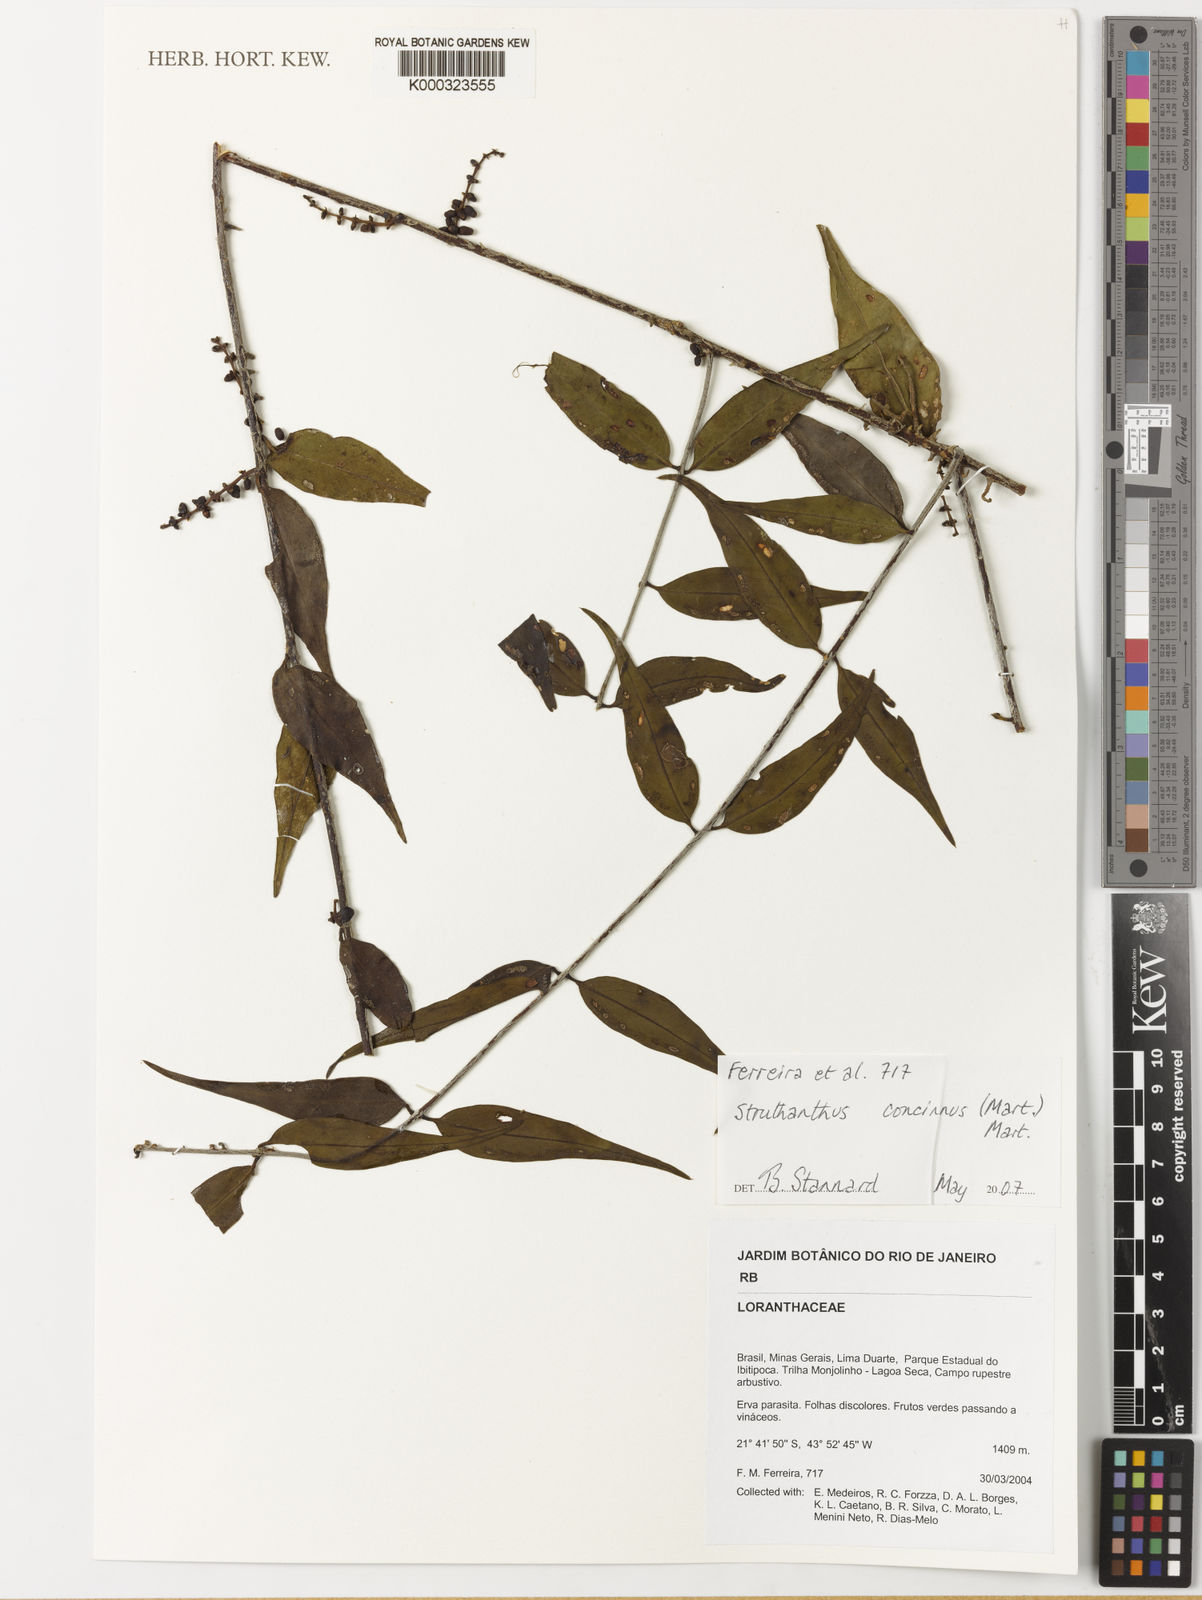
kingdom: Plantae
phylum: Tracheophyta
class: Magnoliopsida
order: Santalales
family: Loranthaceae
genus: Struthanthus
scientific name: Struthanthus
